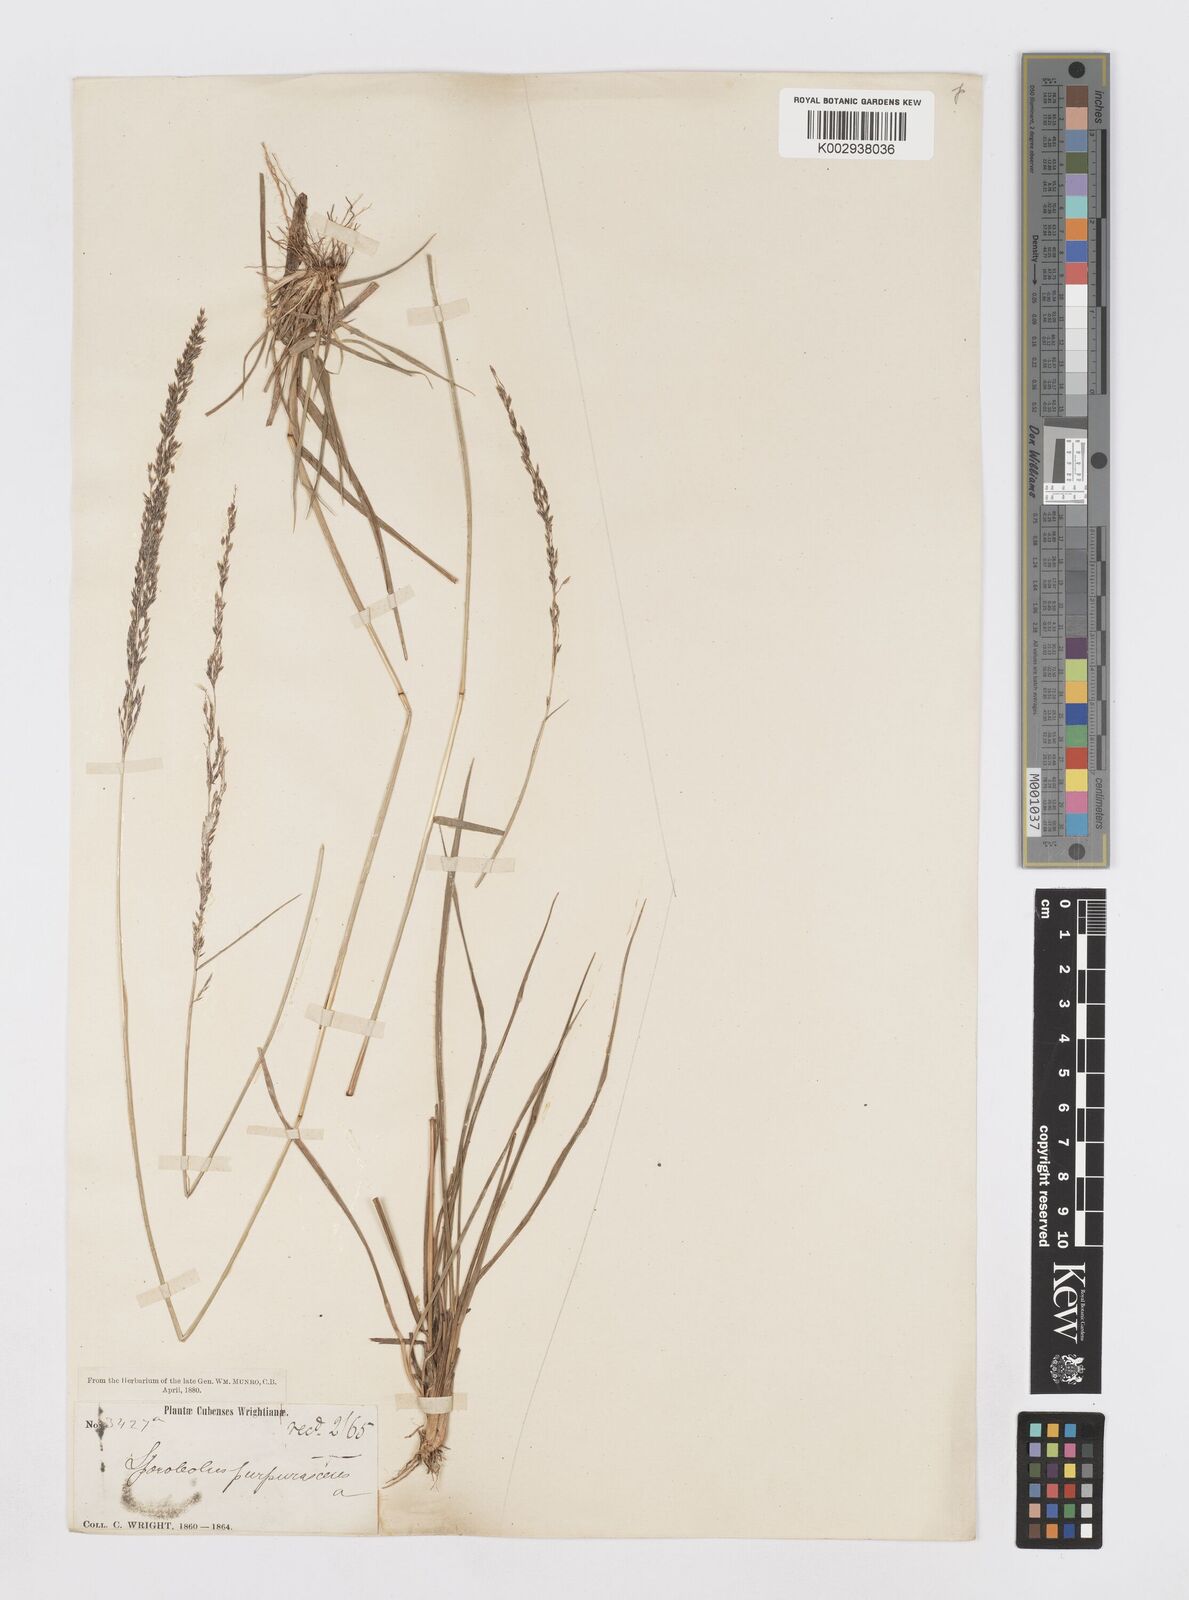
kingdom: Plantae
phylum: Tracheophyta
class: Liliopsida
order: Poales
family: Poaceae
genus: Sporobolus
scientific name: Sporobolus purpurascens
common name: Purple dropseed
